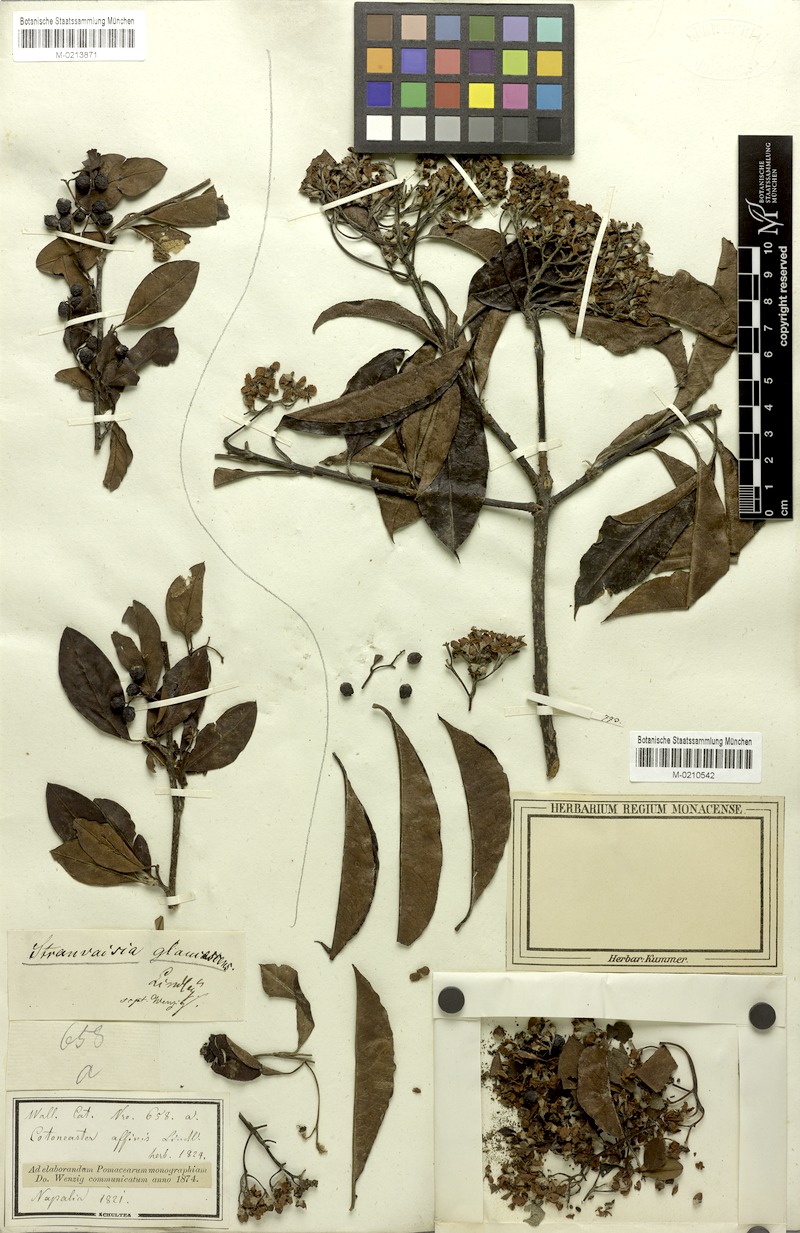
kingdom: Plantae
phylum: Tracheophyta
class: Magnoliopsida
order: Rosales
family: Rosaceae
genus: Stranvaesia
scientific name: Stranvaesia nussia
